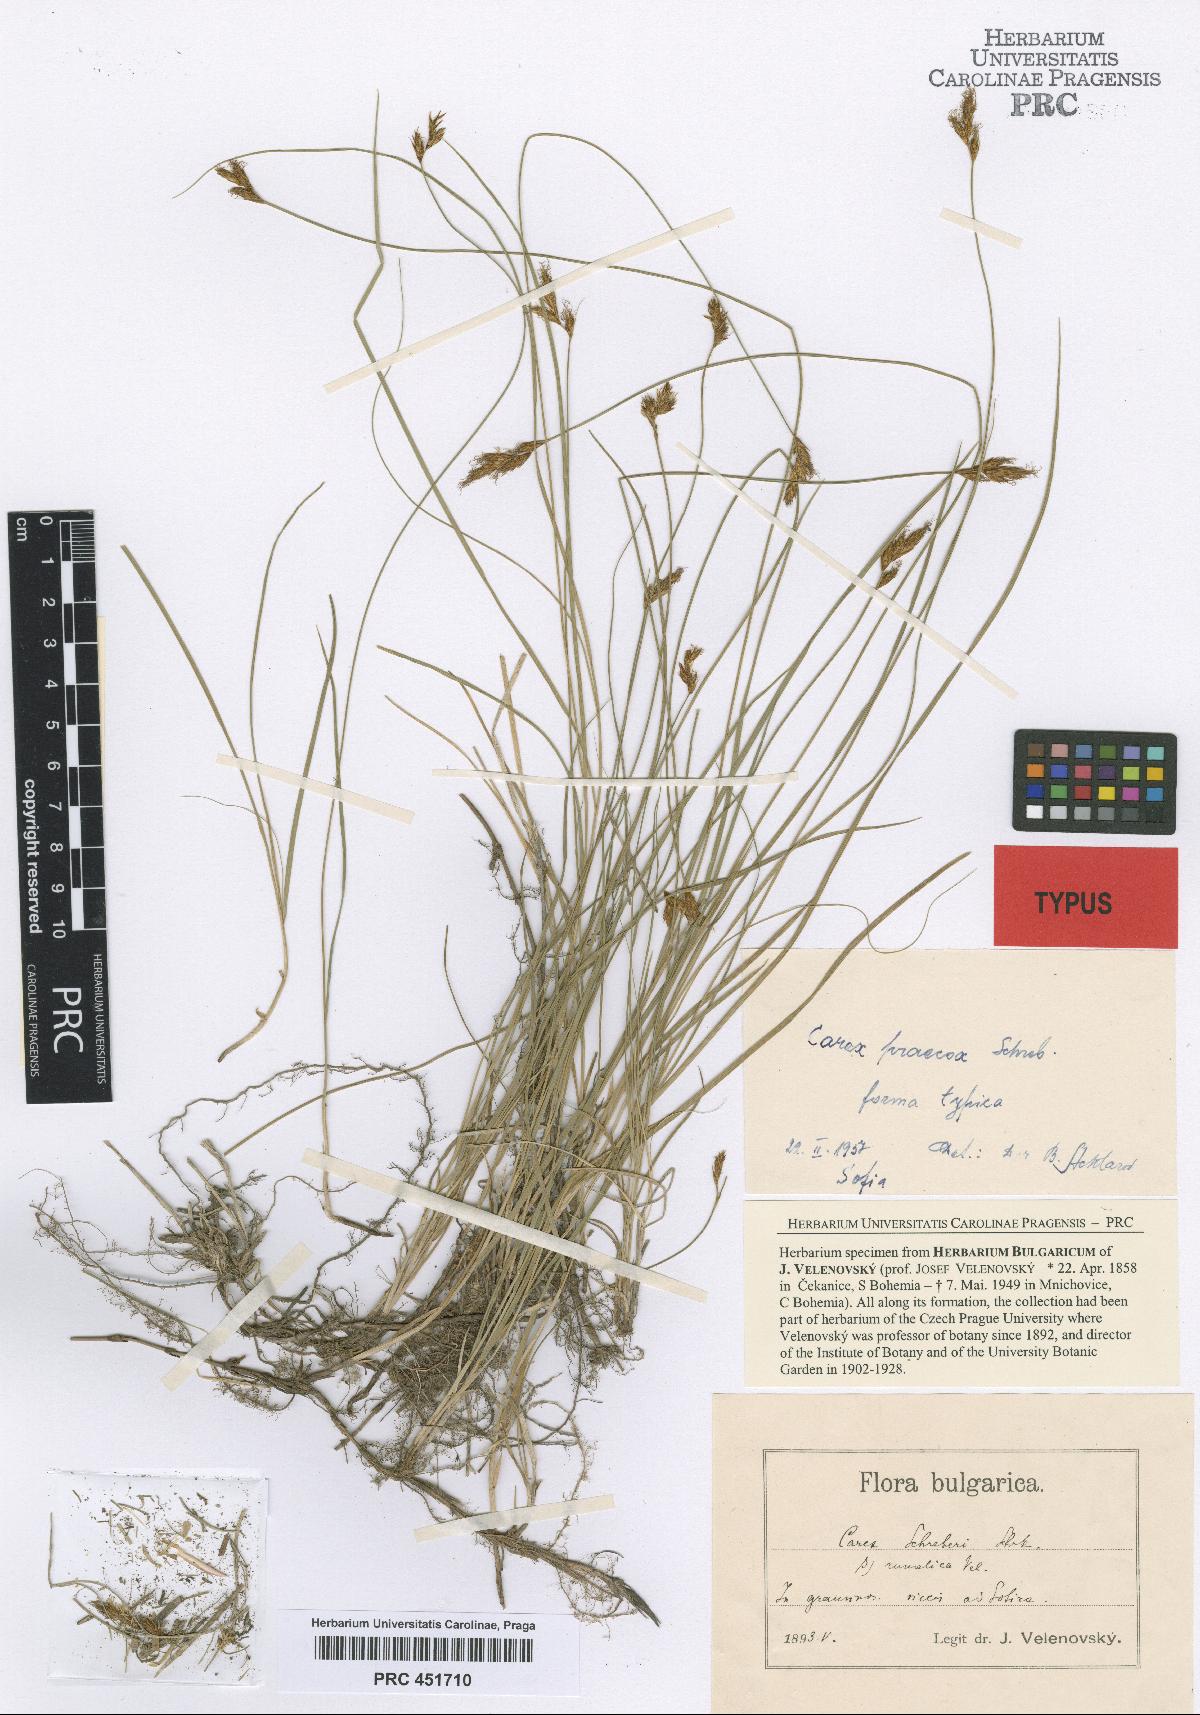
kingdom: Plantae
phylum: Tracheophyta
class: Liliopsida
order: Poales
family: Cyperaceae
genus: Carex
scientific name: Carex praecox
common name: Early sedge
